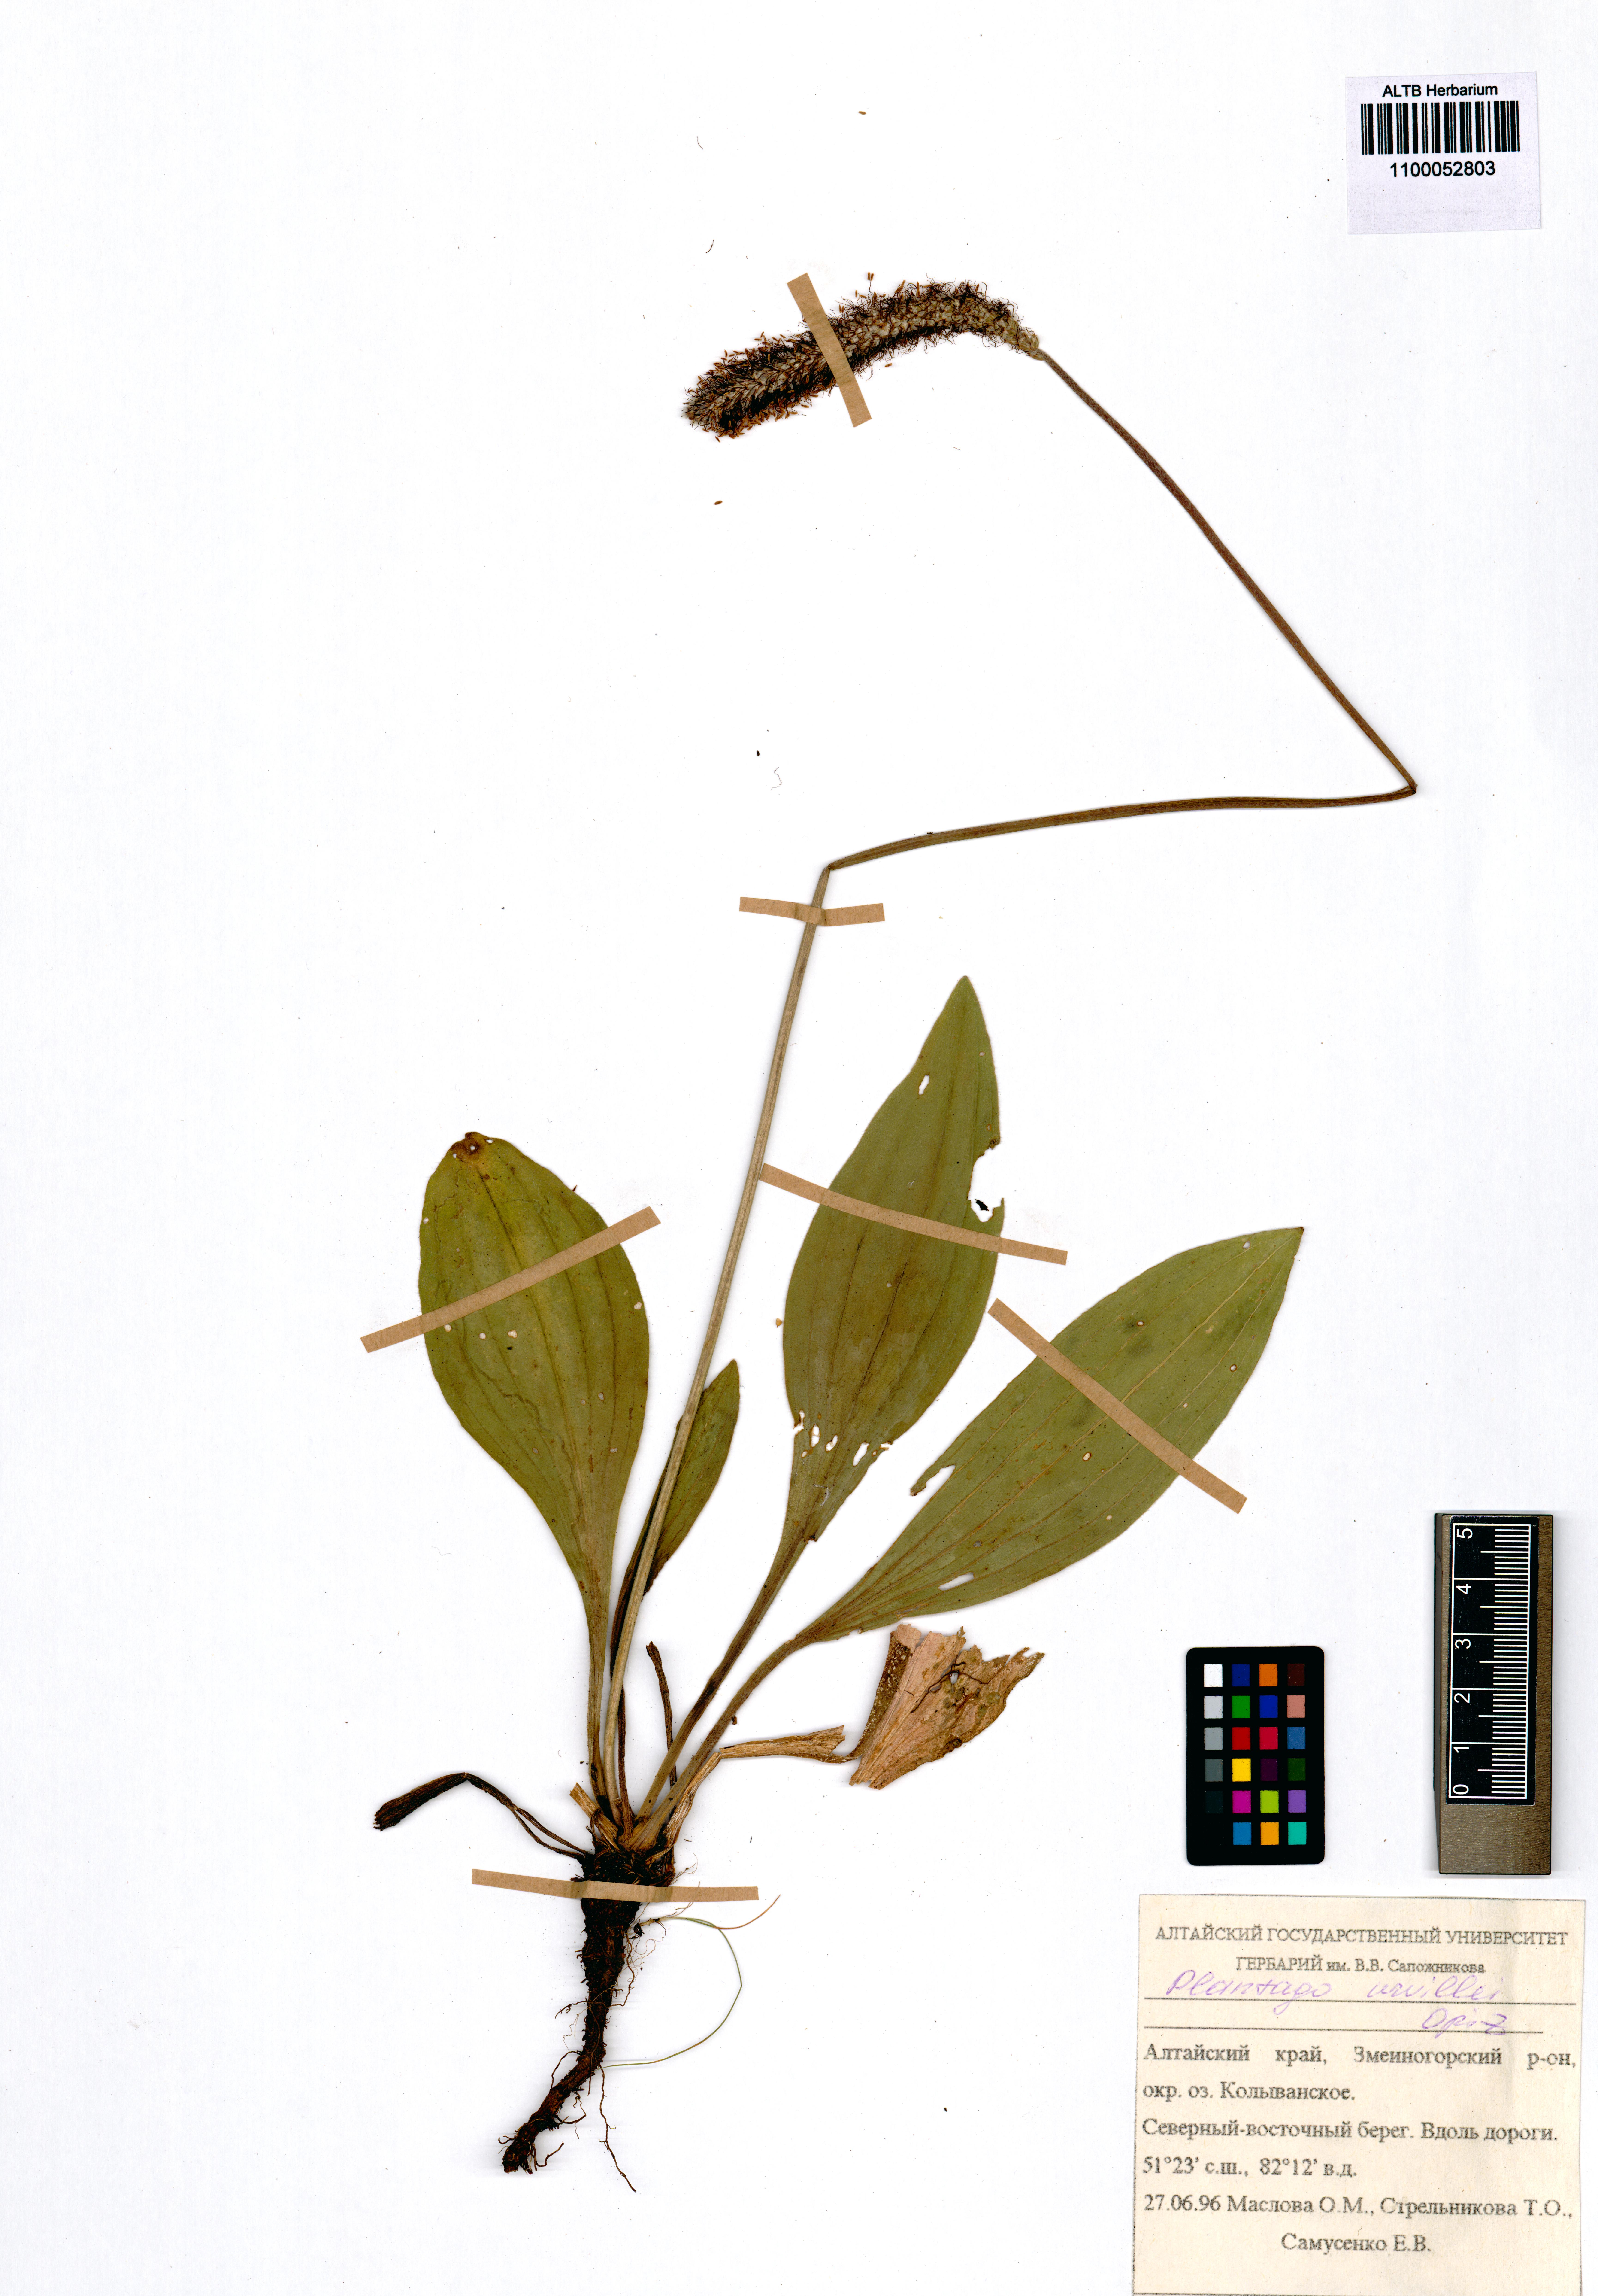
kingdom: Plantae
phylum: Tracheophyta
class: Magnoliopsida
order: Lamiales
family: Plantaginaceae
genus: Plantago
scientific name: Plantago urvillei
